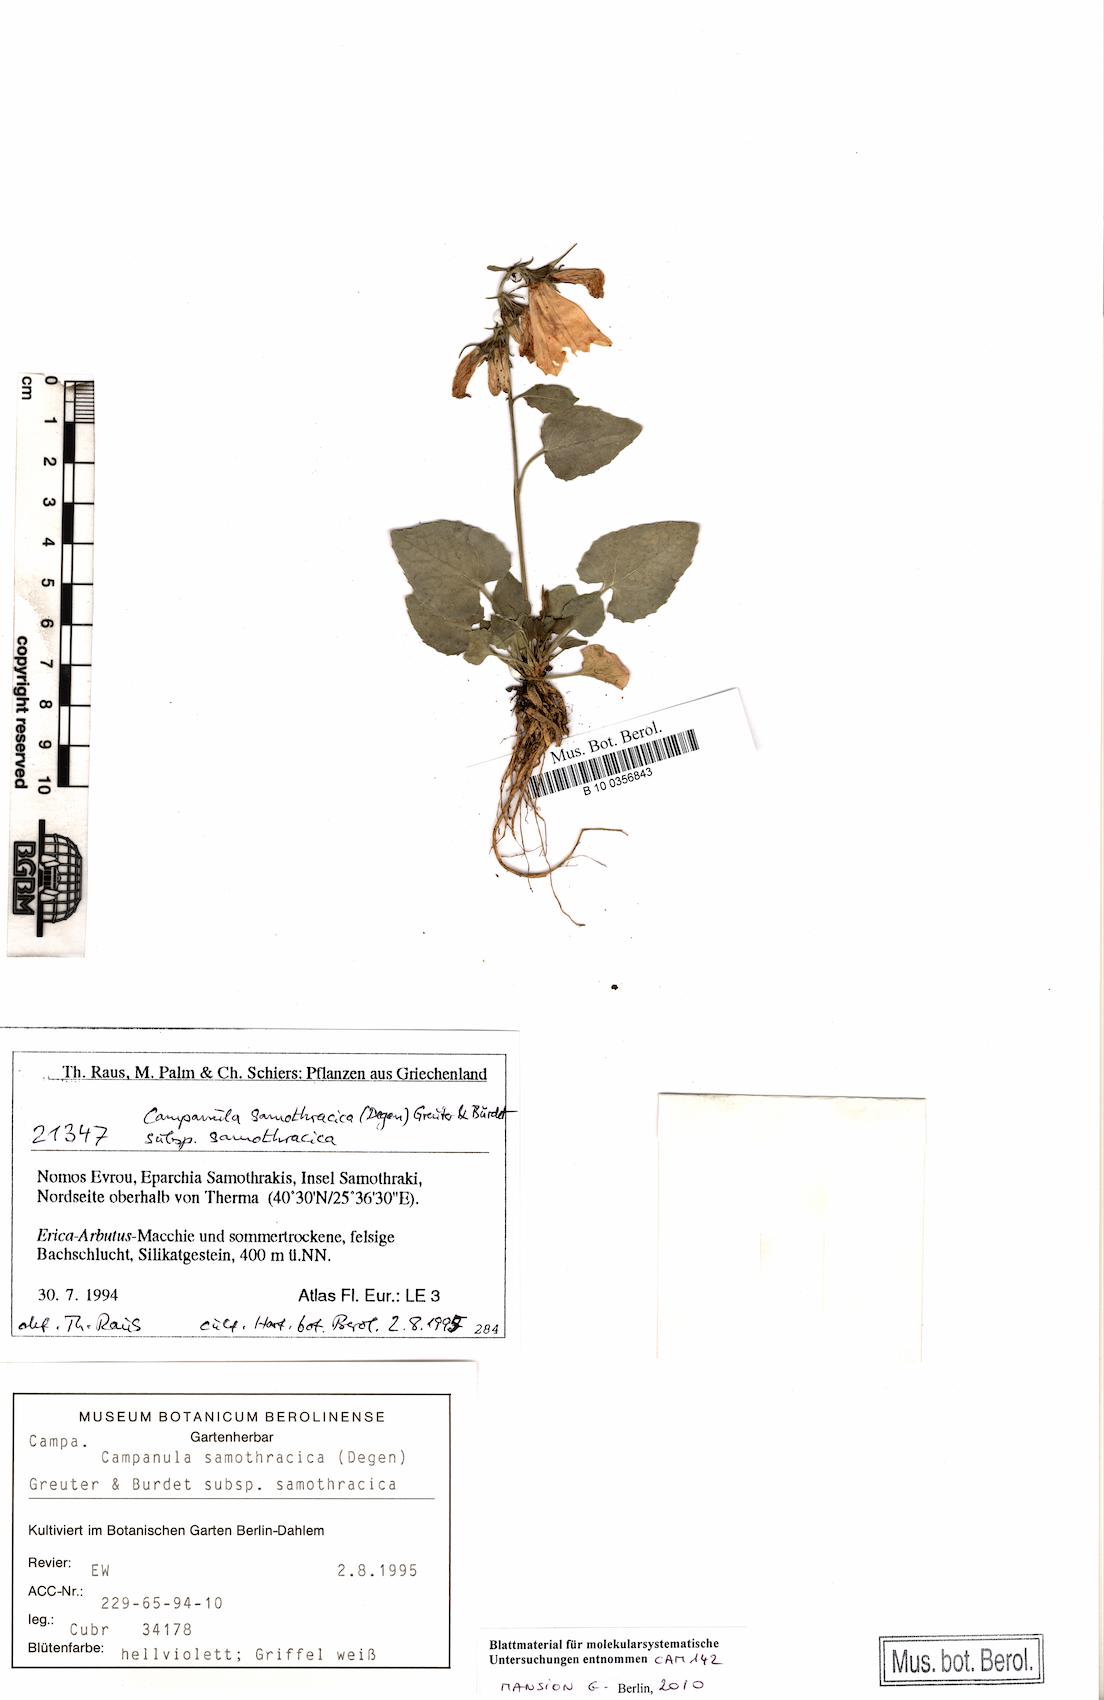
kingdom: Plantae
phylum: Tracheophyta
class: Magnoliopsida
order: Asterales
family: Campanulaceae
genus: Campanula
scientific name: Campanula samothracica
